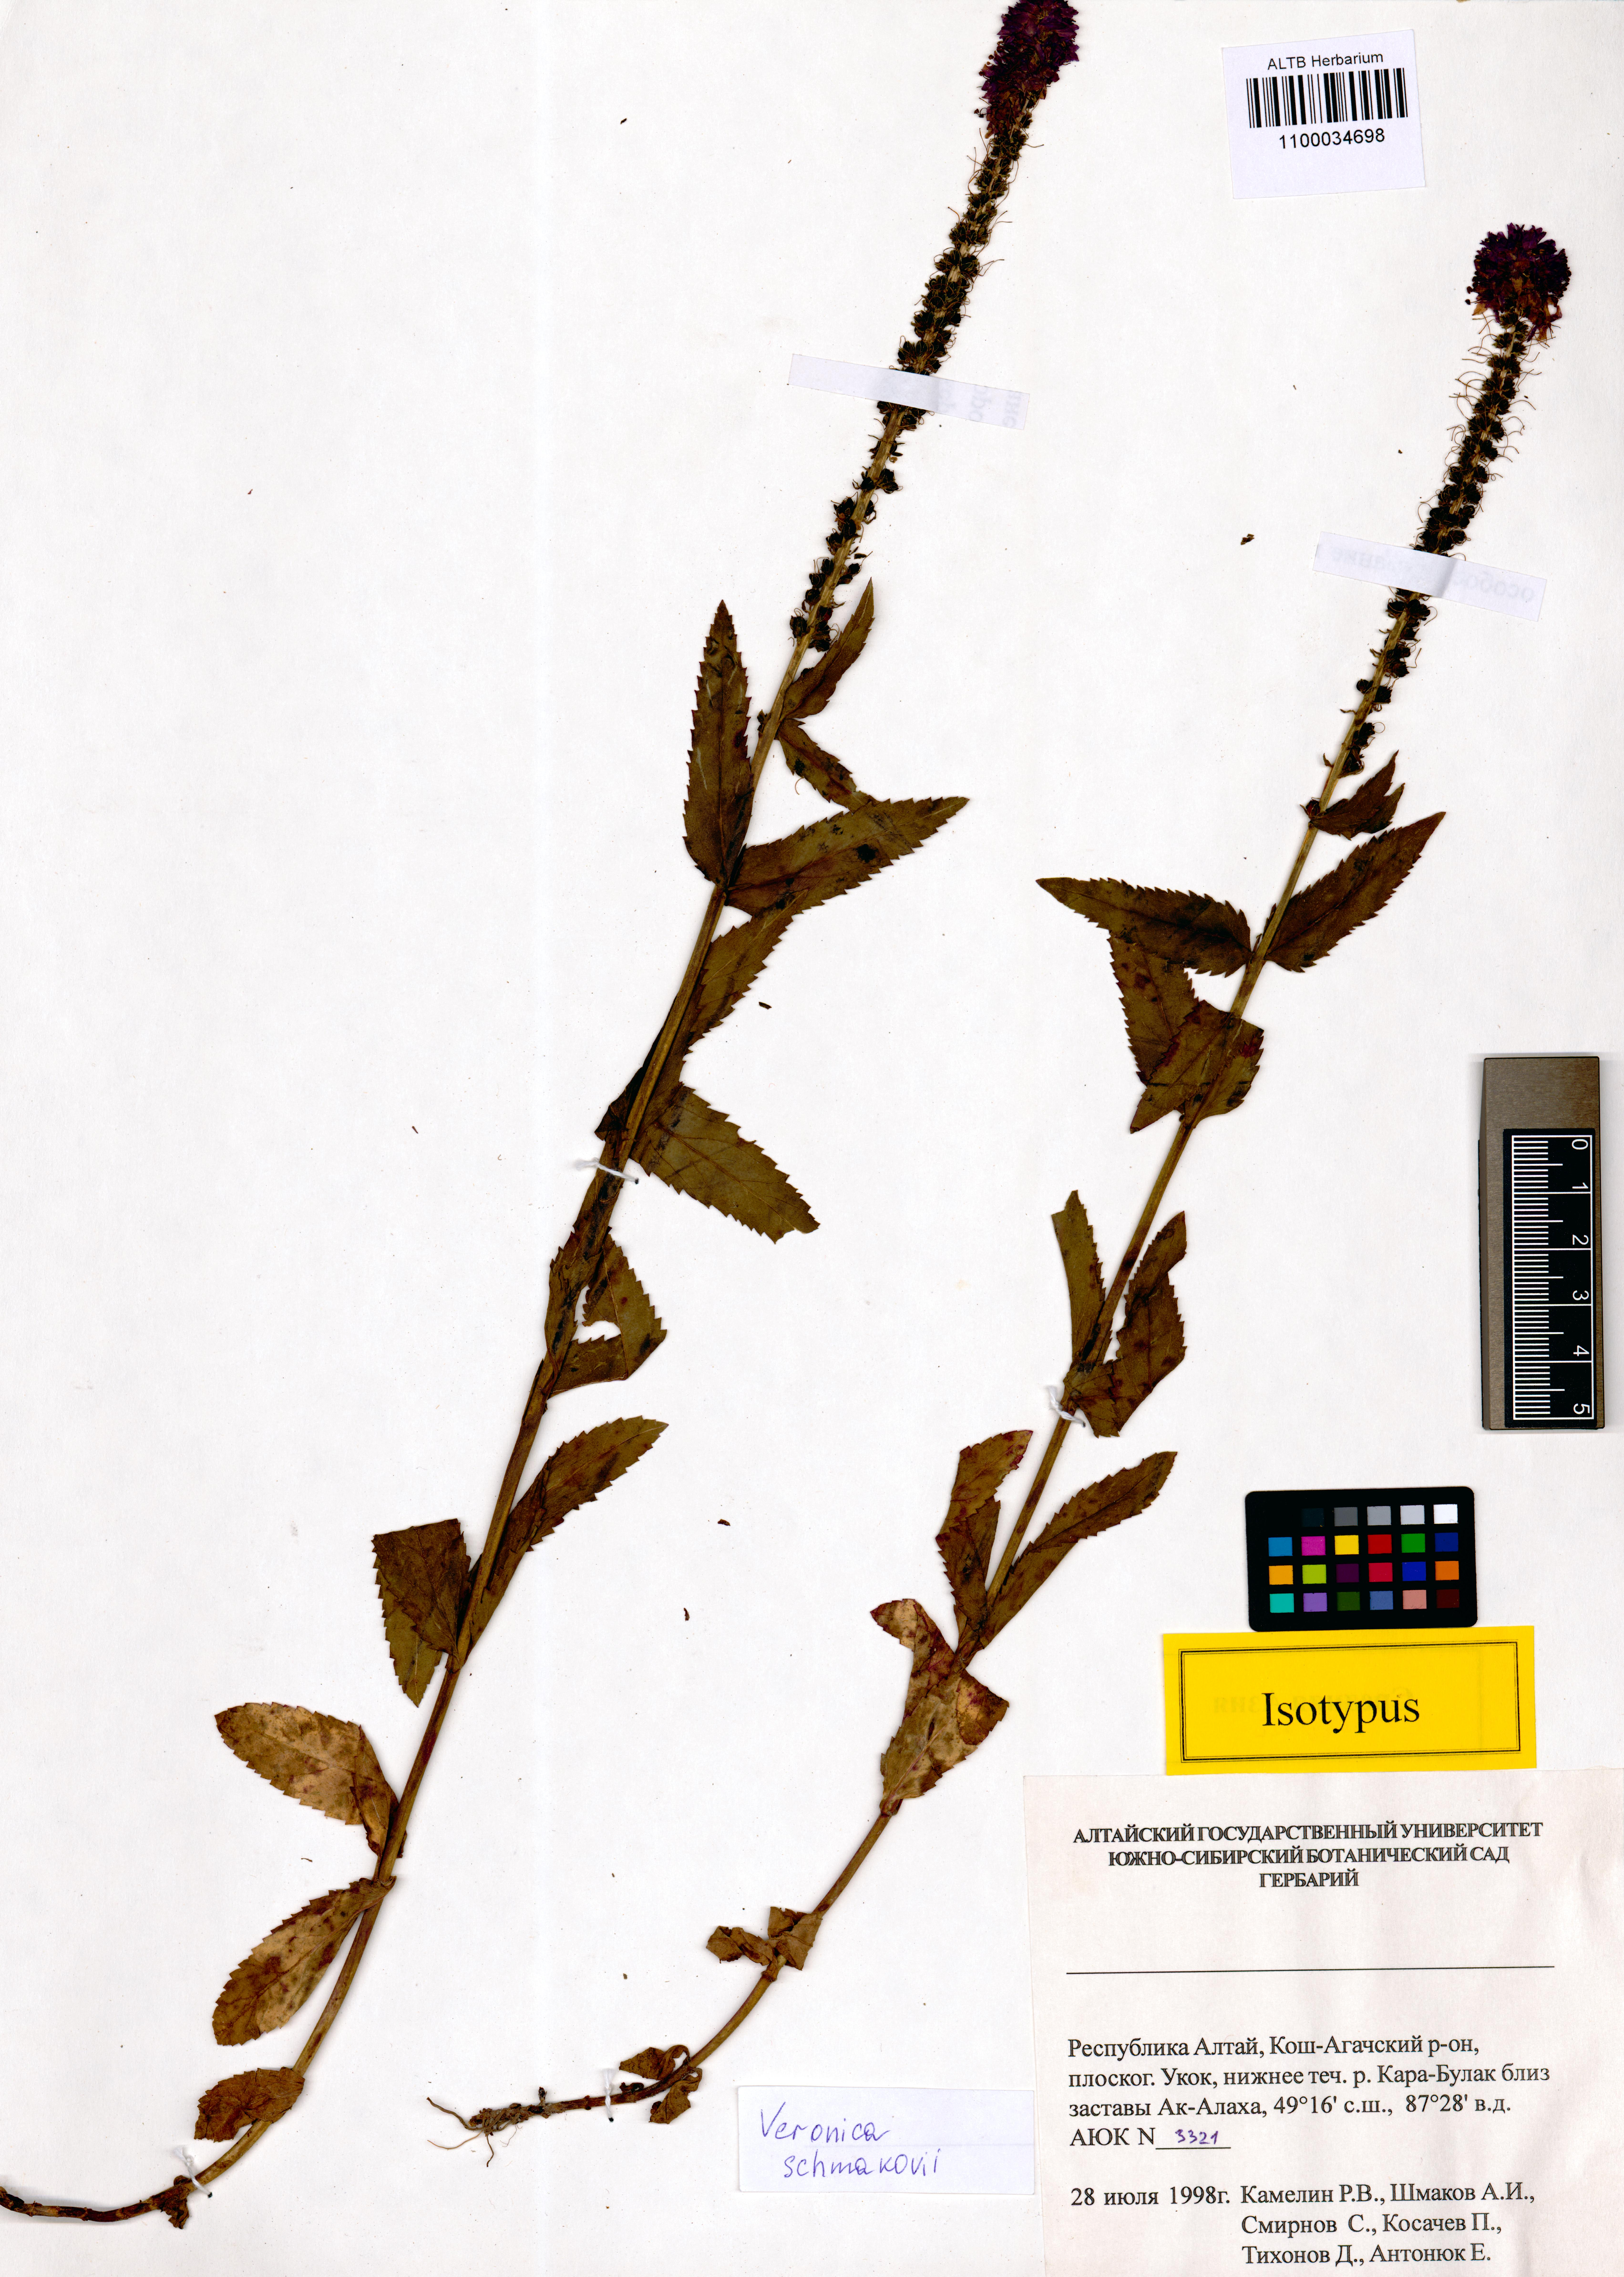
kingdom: Plantae
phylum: Tracheophyta
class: Magnoliopsida
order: Lamiales
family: Plantaginaceae
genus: Veronica
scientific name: Veronica schmakovii
